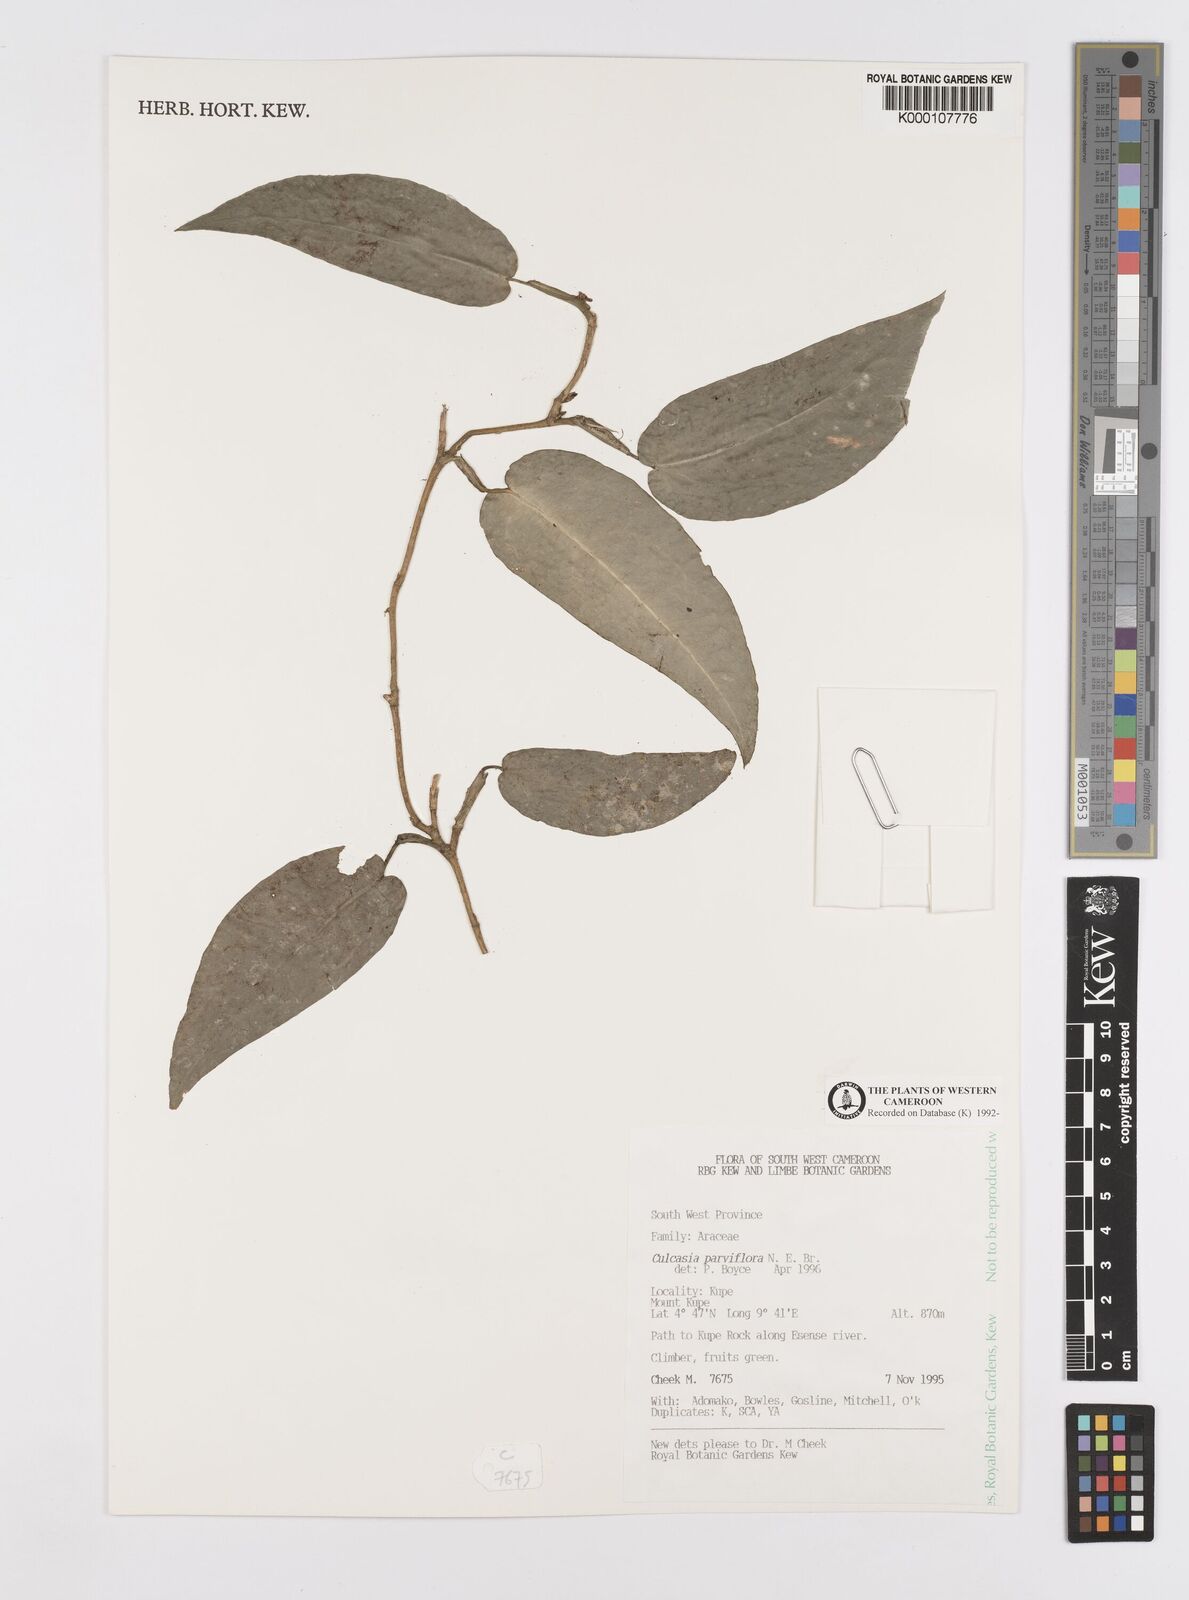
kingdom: Plantae
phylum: Tracheophyta
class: Liliopsida
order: Alismatales
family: Araceae
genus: Culcasia
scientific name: Culcasia parviflora
